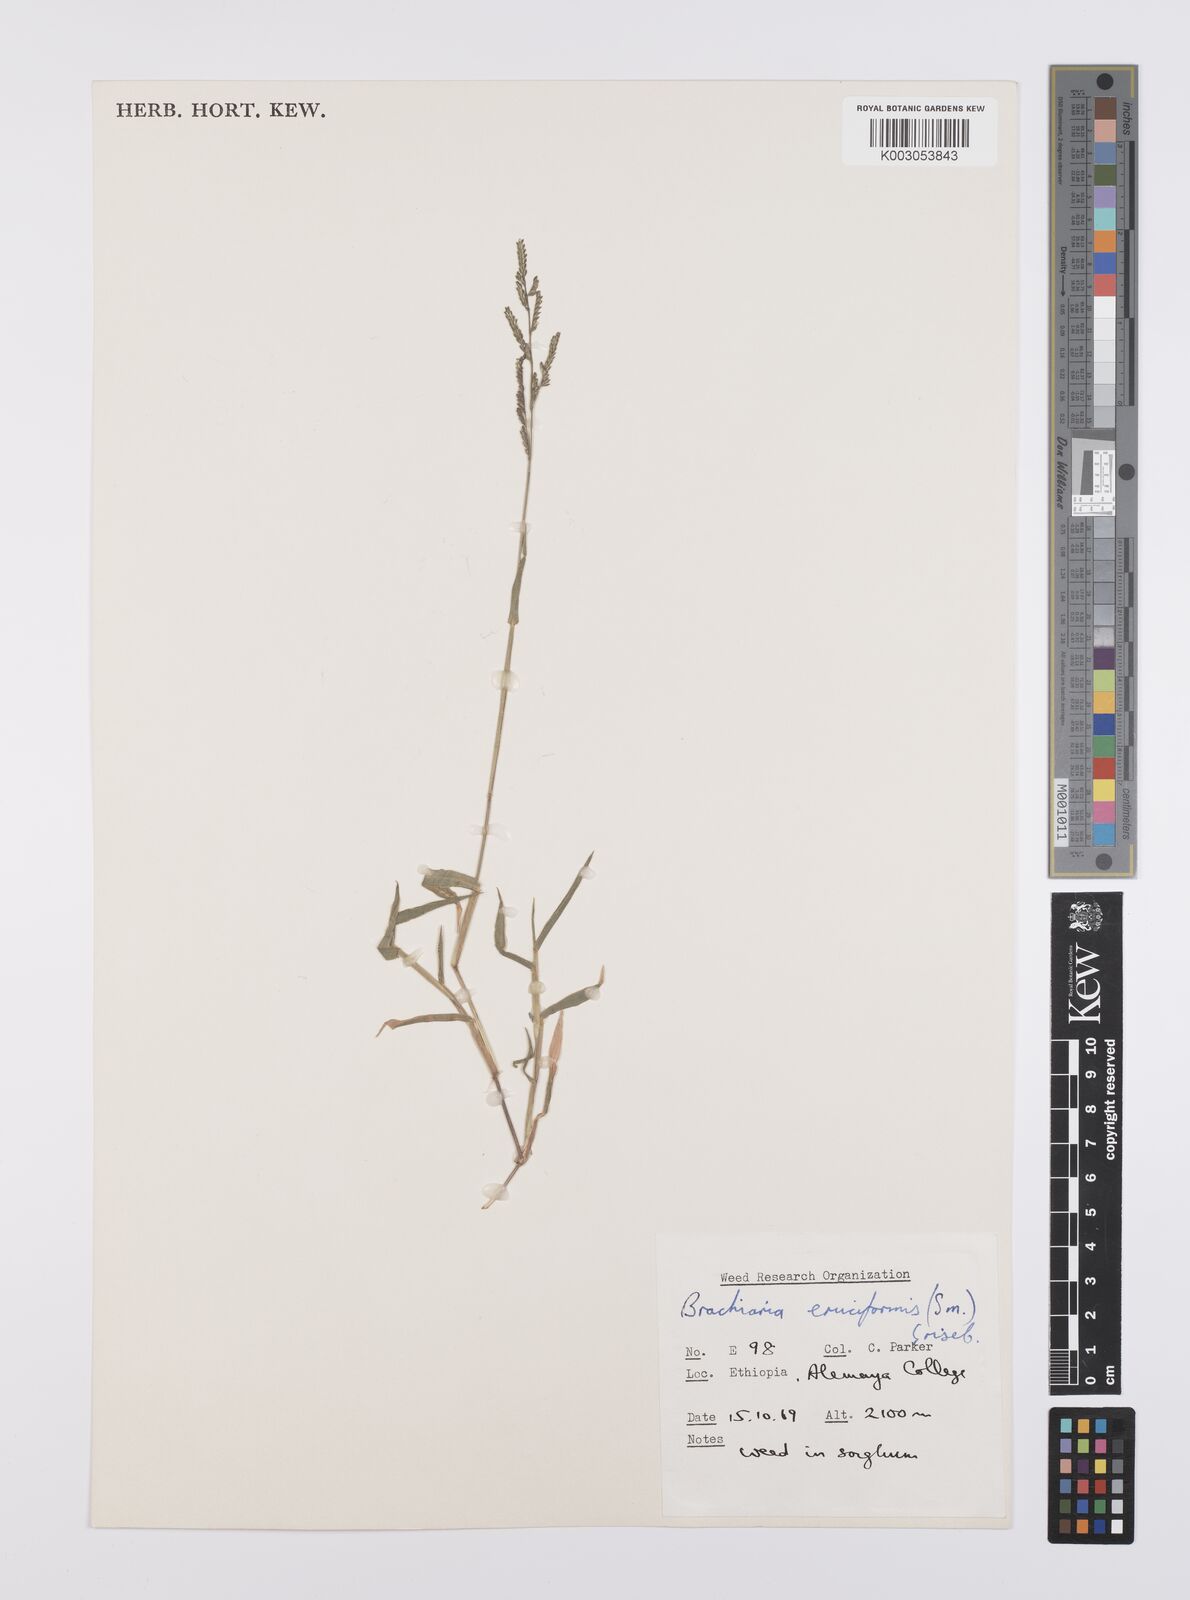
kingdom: Plantae
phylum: Tracheophyta
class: Liliopsida
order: Poales
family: Poaceae
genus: Moorochloa
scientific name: Moorochloa eruciformis
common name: Sweet signalgrass
